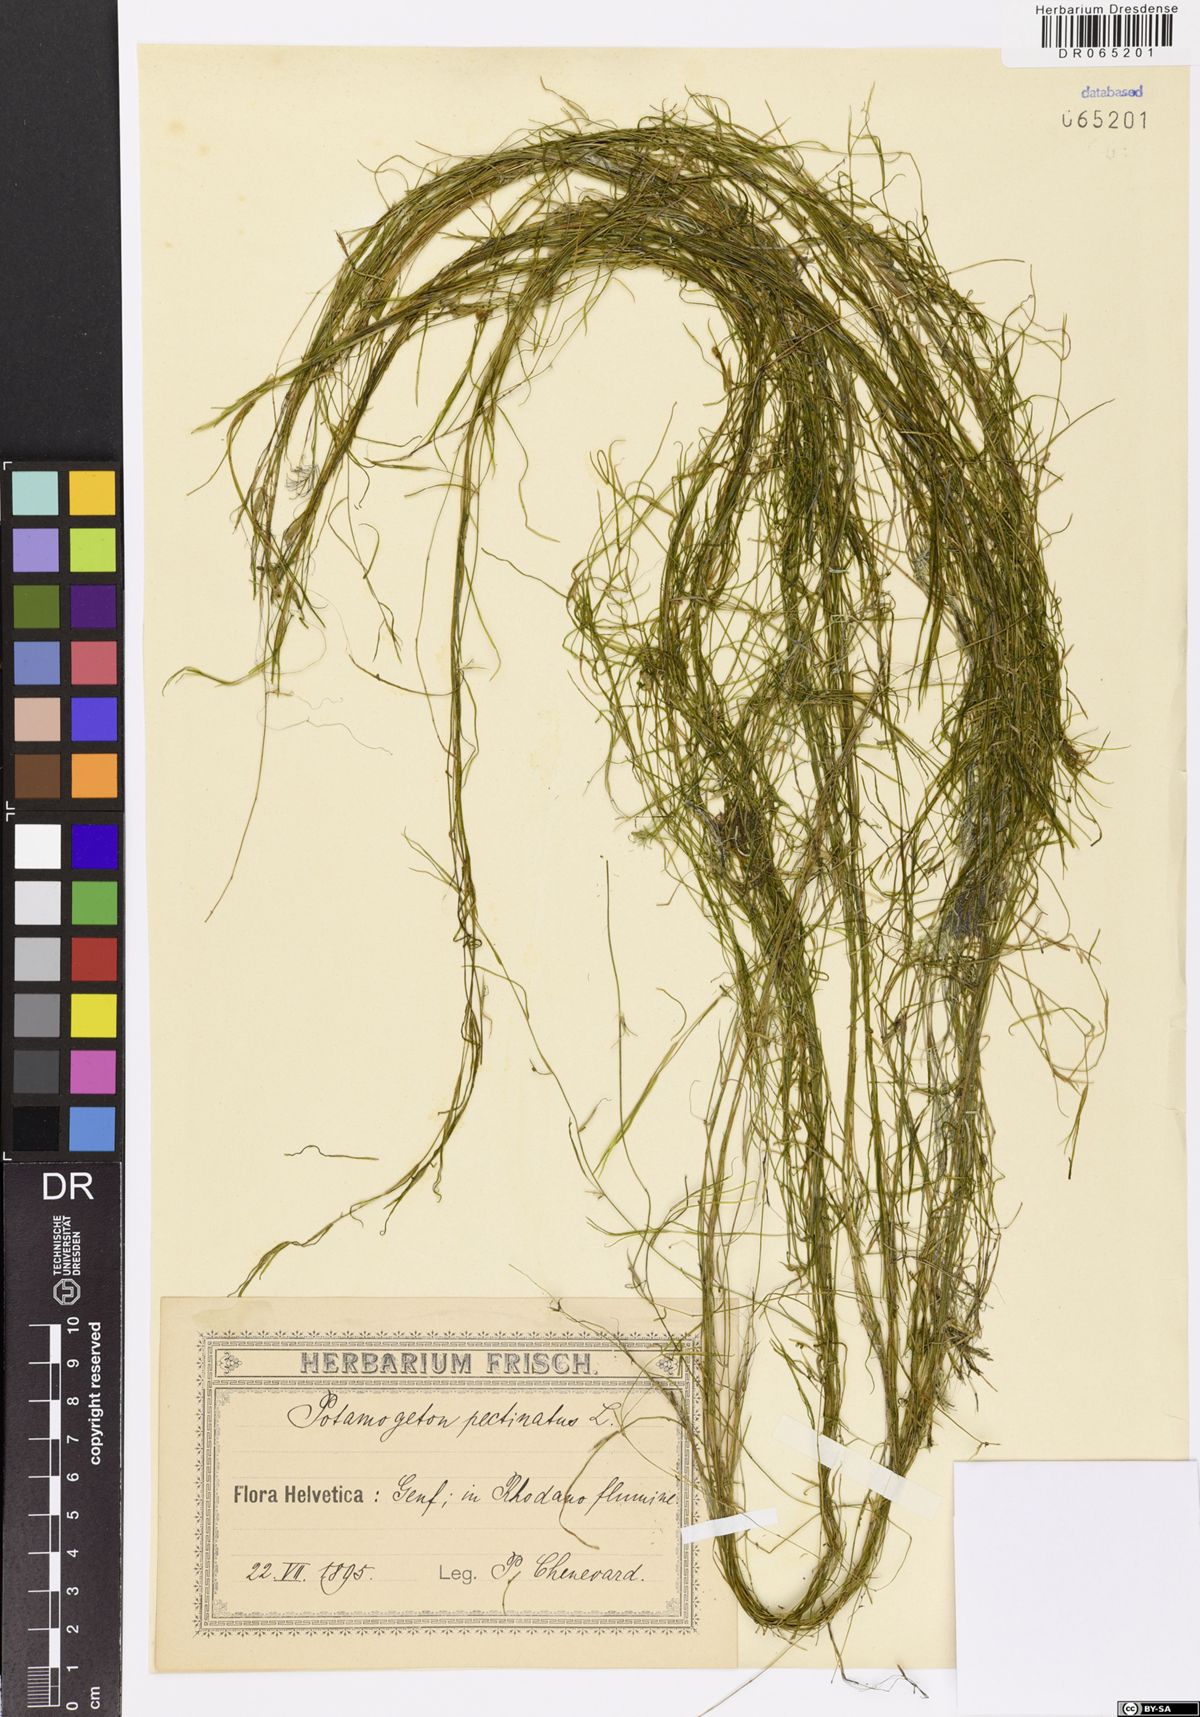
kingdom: Plantae
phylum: Tracheophyta
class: Liliopsida
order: Alismatales
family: Potamogetonaceae
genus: Stuckenia
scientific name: Stuckenia pectinata
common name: Sago pondweed
